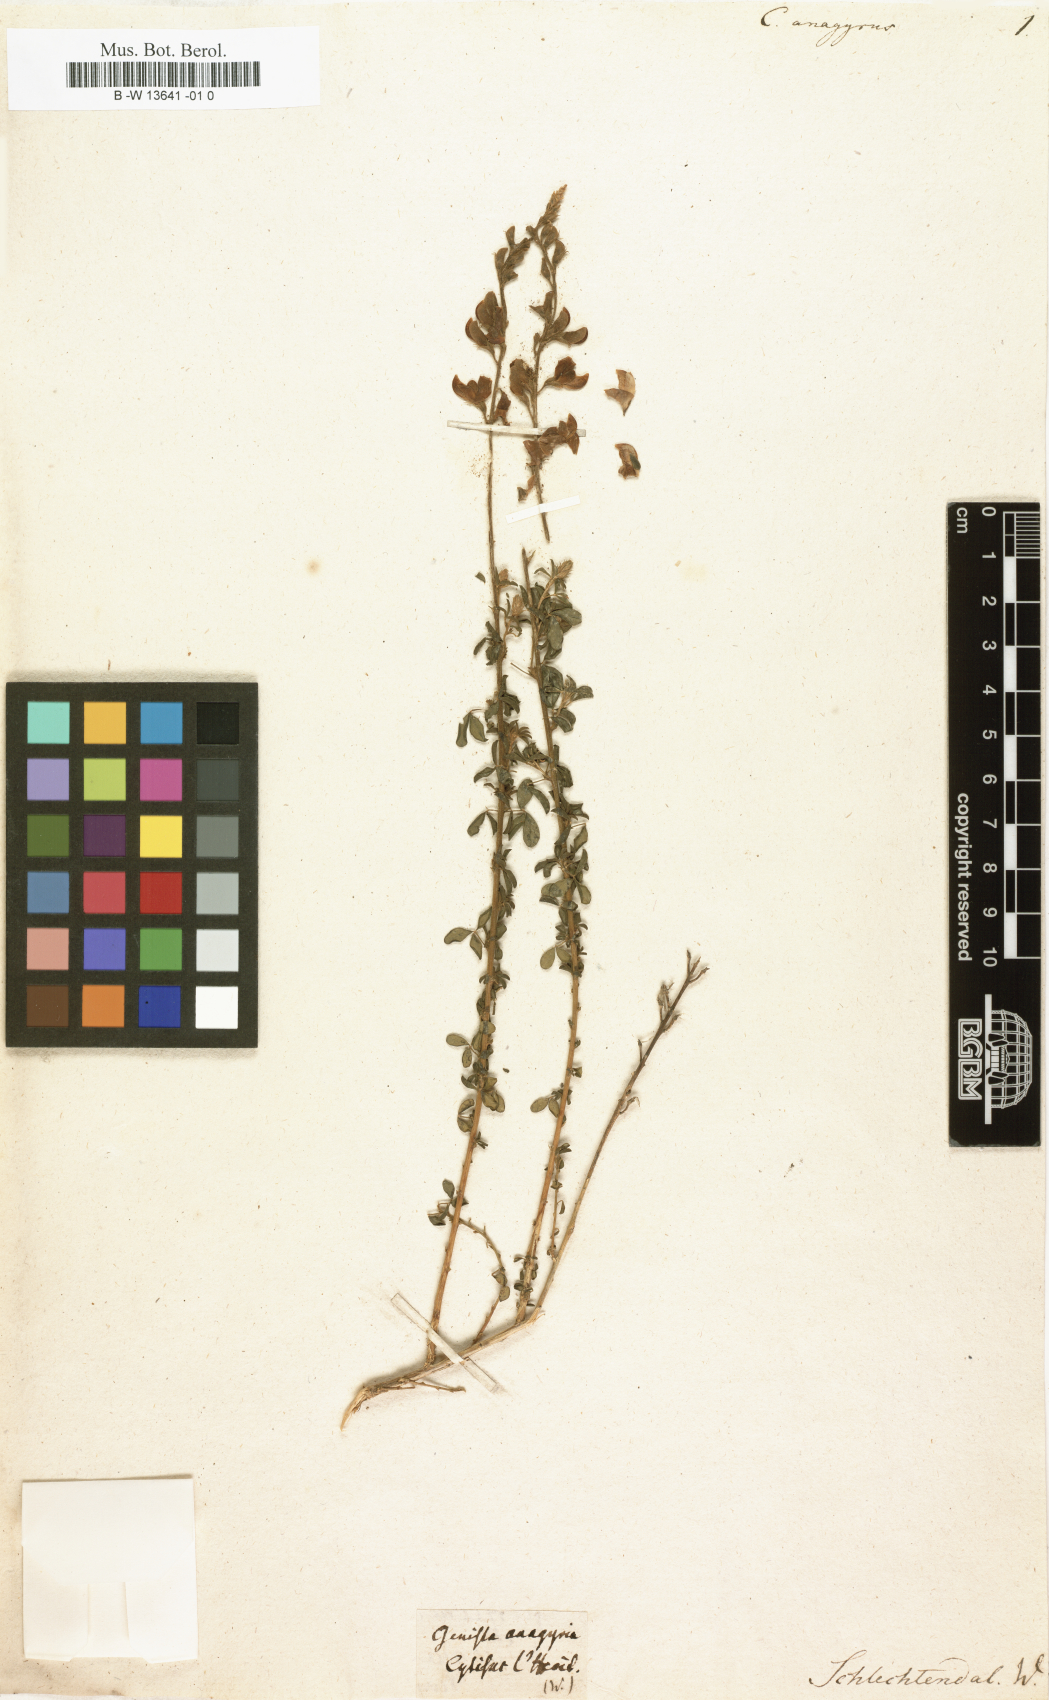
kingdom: Plantae
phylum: Tracheophyta
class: Magnoliopsida
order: Fabales
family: Fabaceae
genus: Adenocarpus
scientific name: Adenocarpus hispanicus
